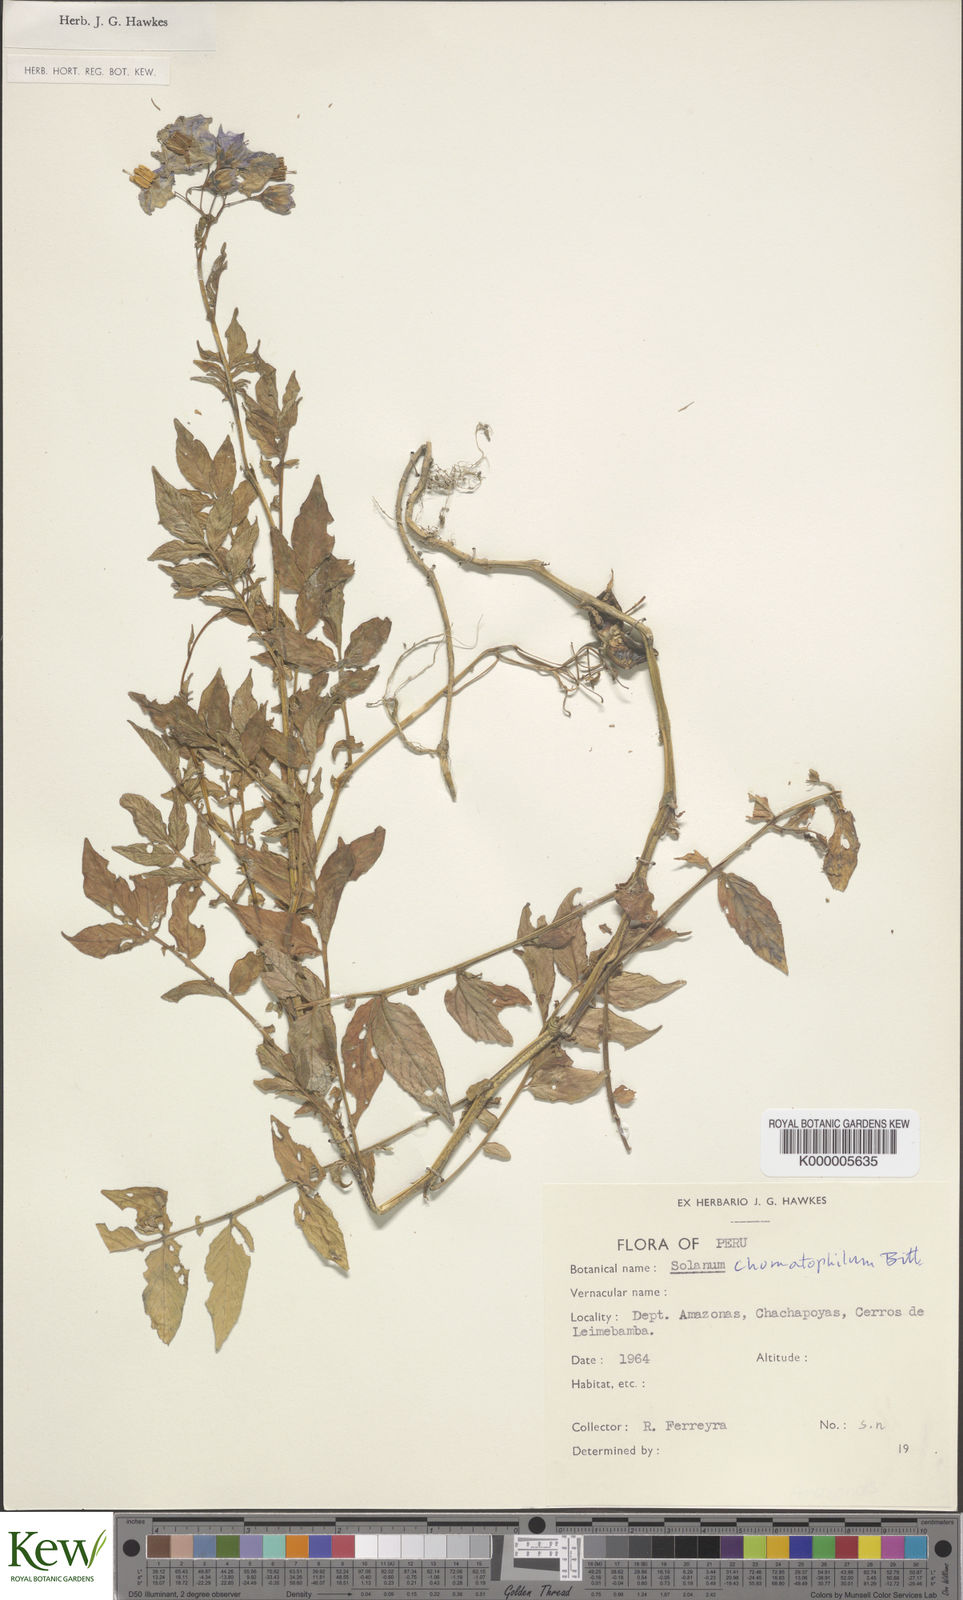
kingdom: Plantae
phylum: Tracheophyta
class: Magnoliopsida
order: Solanales
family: Solanaceae
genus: Solanum
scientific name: Solanum chomatophilum
